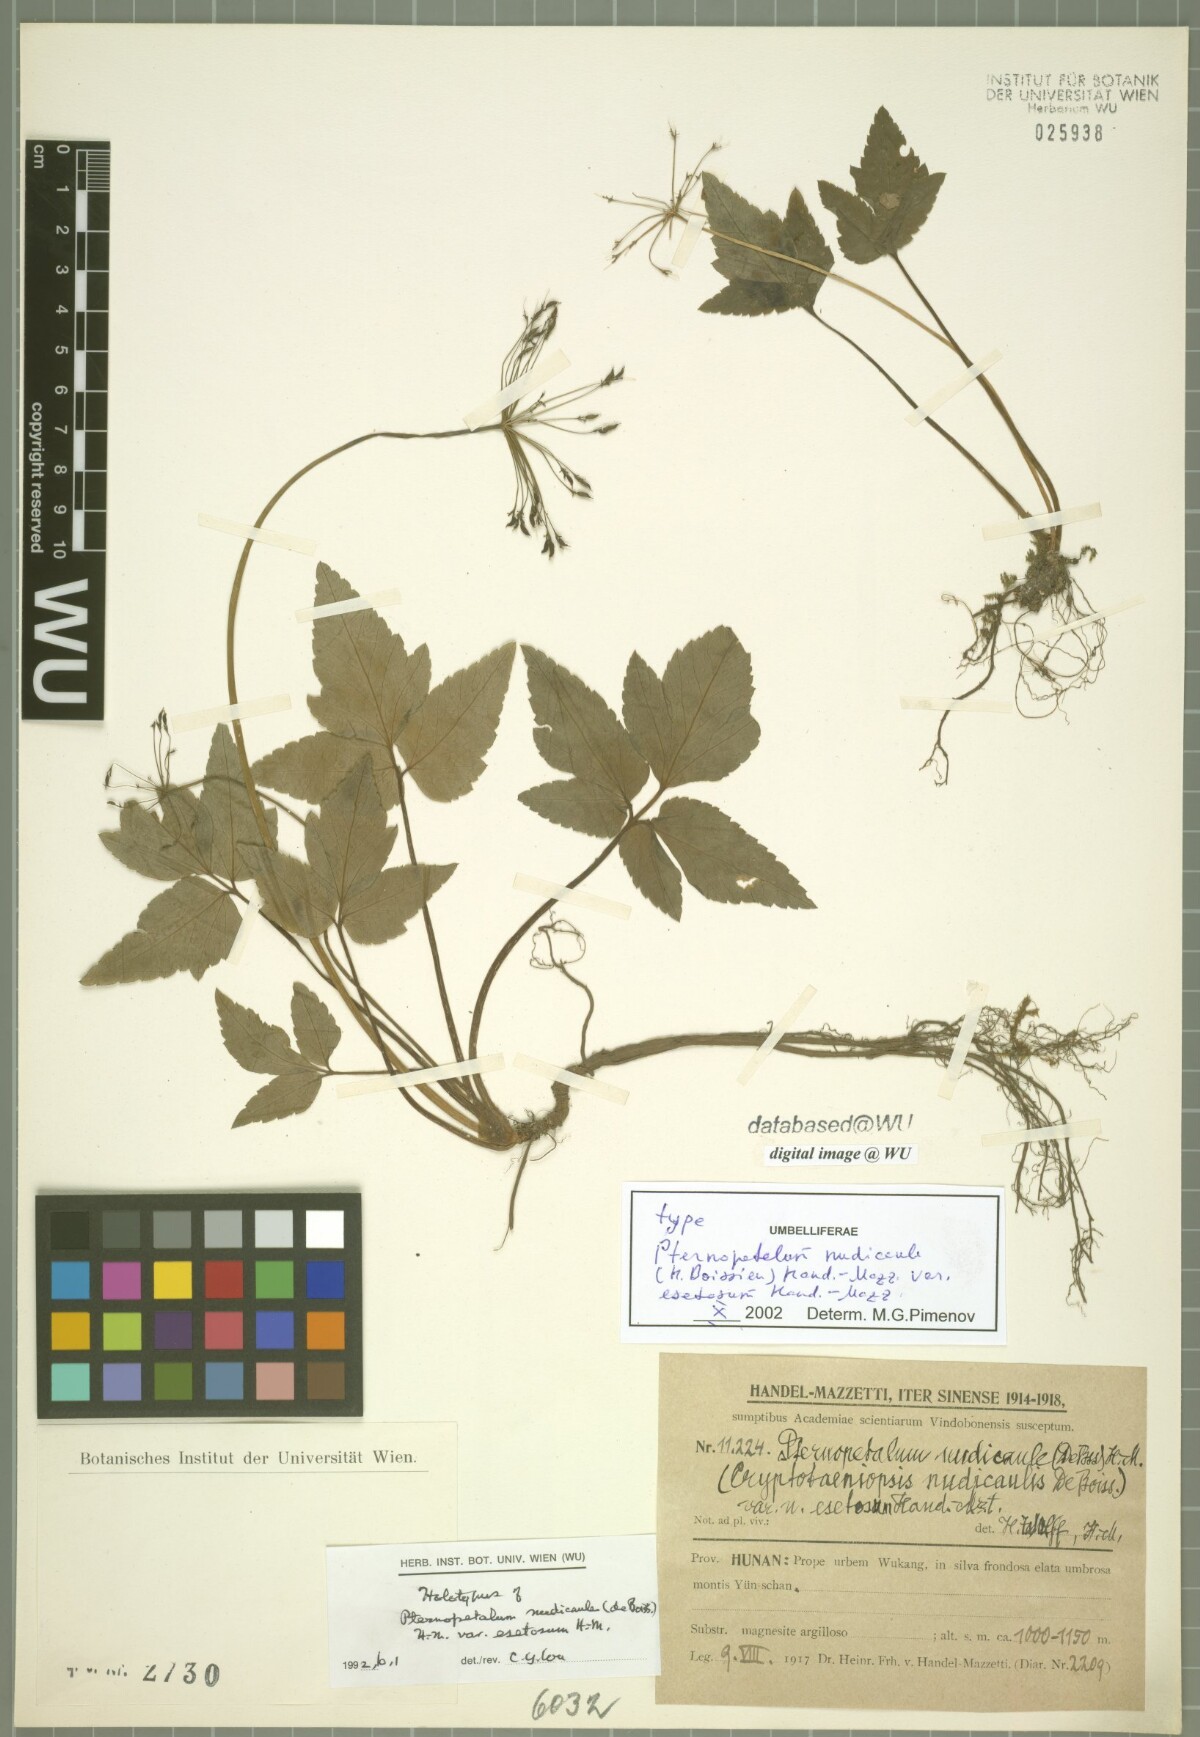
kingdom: Plantae
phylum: Tracheophyta
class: Magnoliopsida
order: Apiales
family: Apiaceae
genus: Pternopetalum
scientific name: Pternopetalum nudicaule
